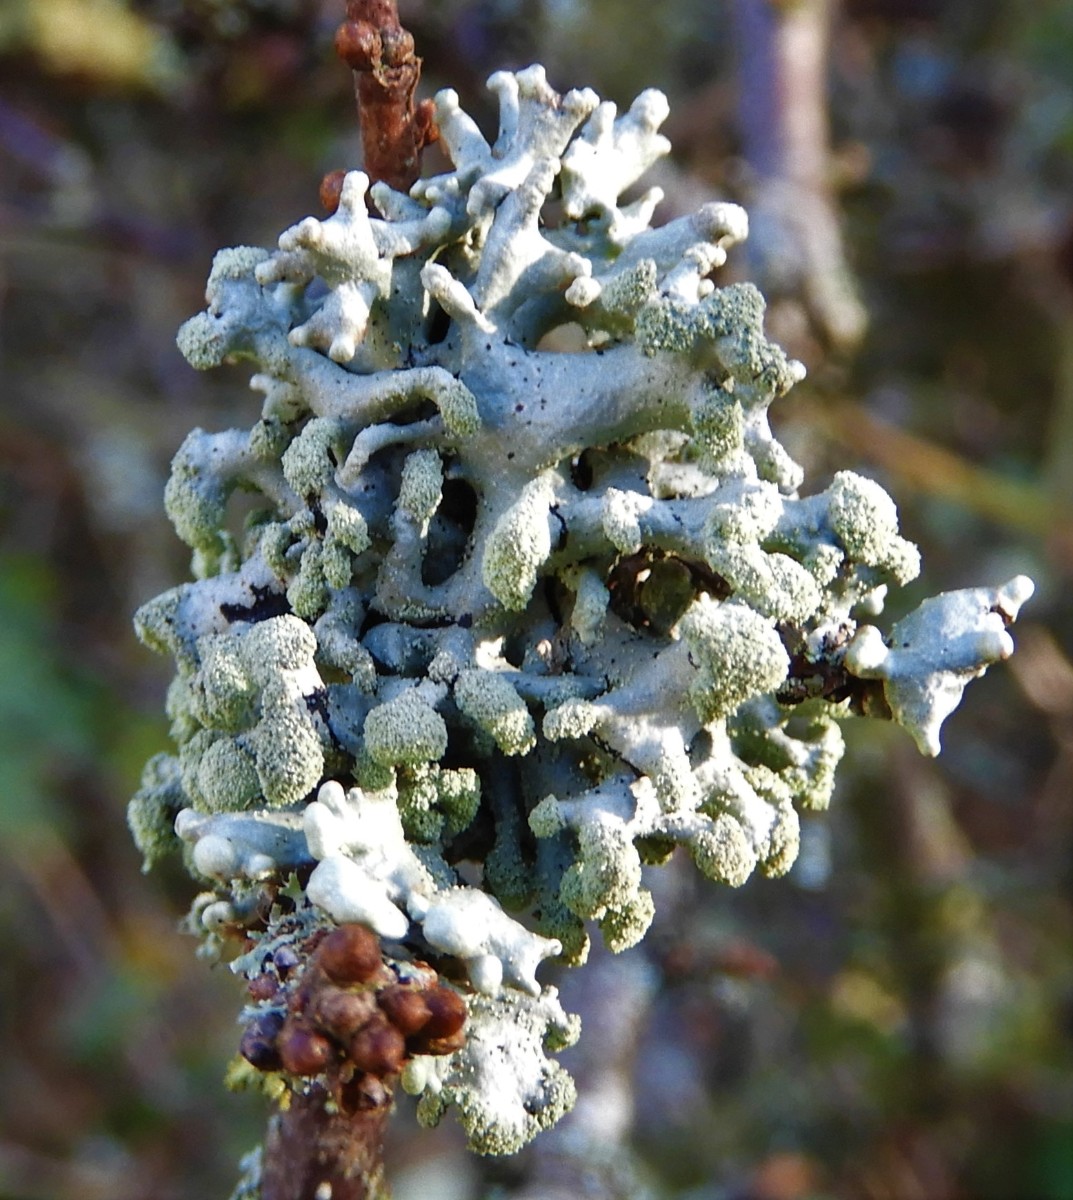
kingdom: Fungi
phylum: Ascomycota
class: Lecanoromycetes
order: Lecanorales
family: Parmeliaceae
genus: Hypogymnia
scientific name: Hypogymnia tubulosa
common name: finger-kvistlav
